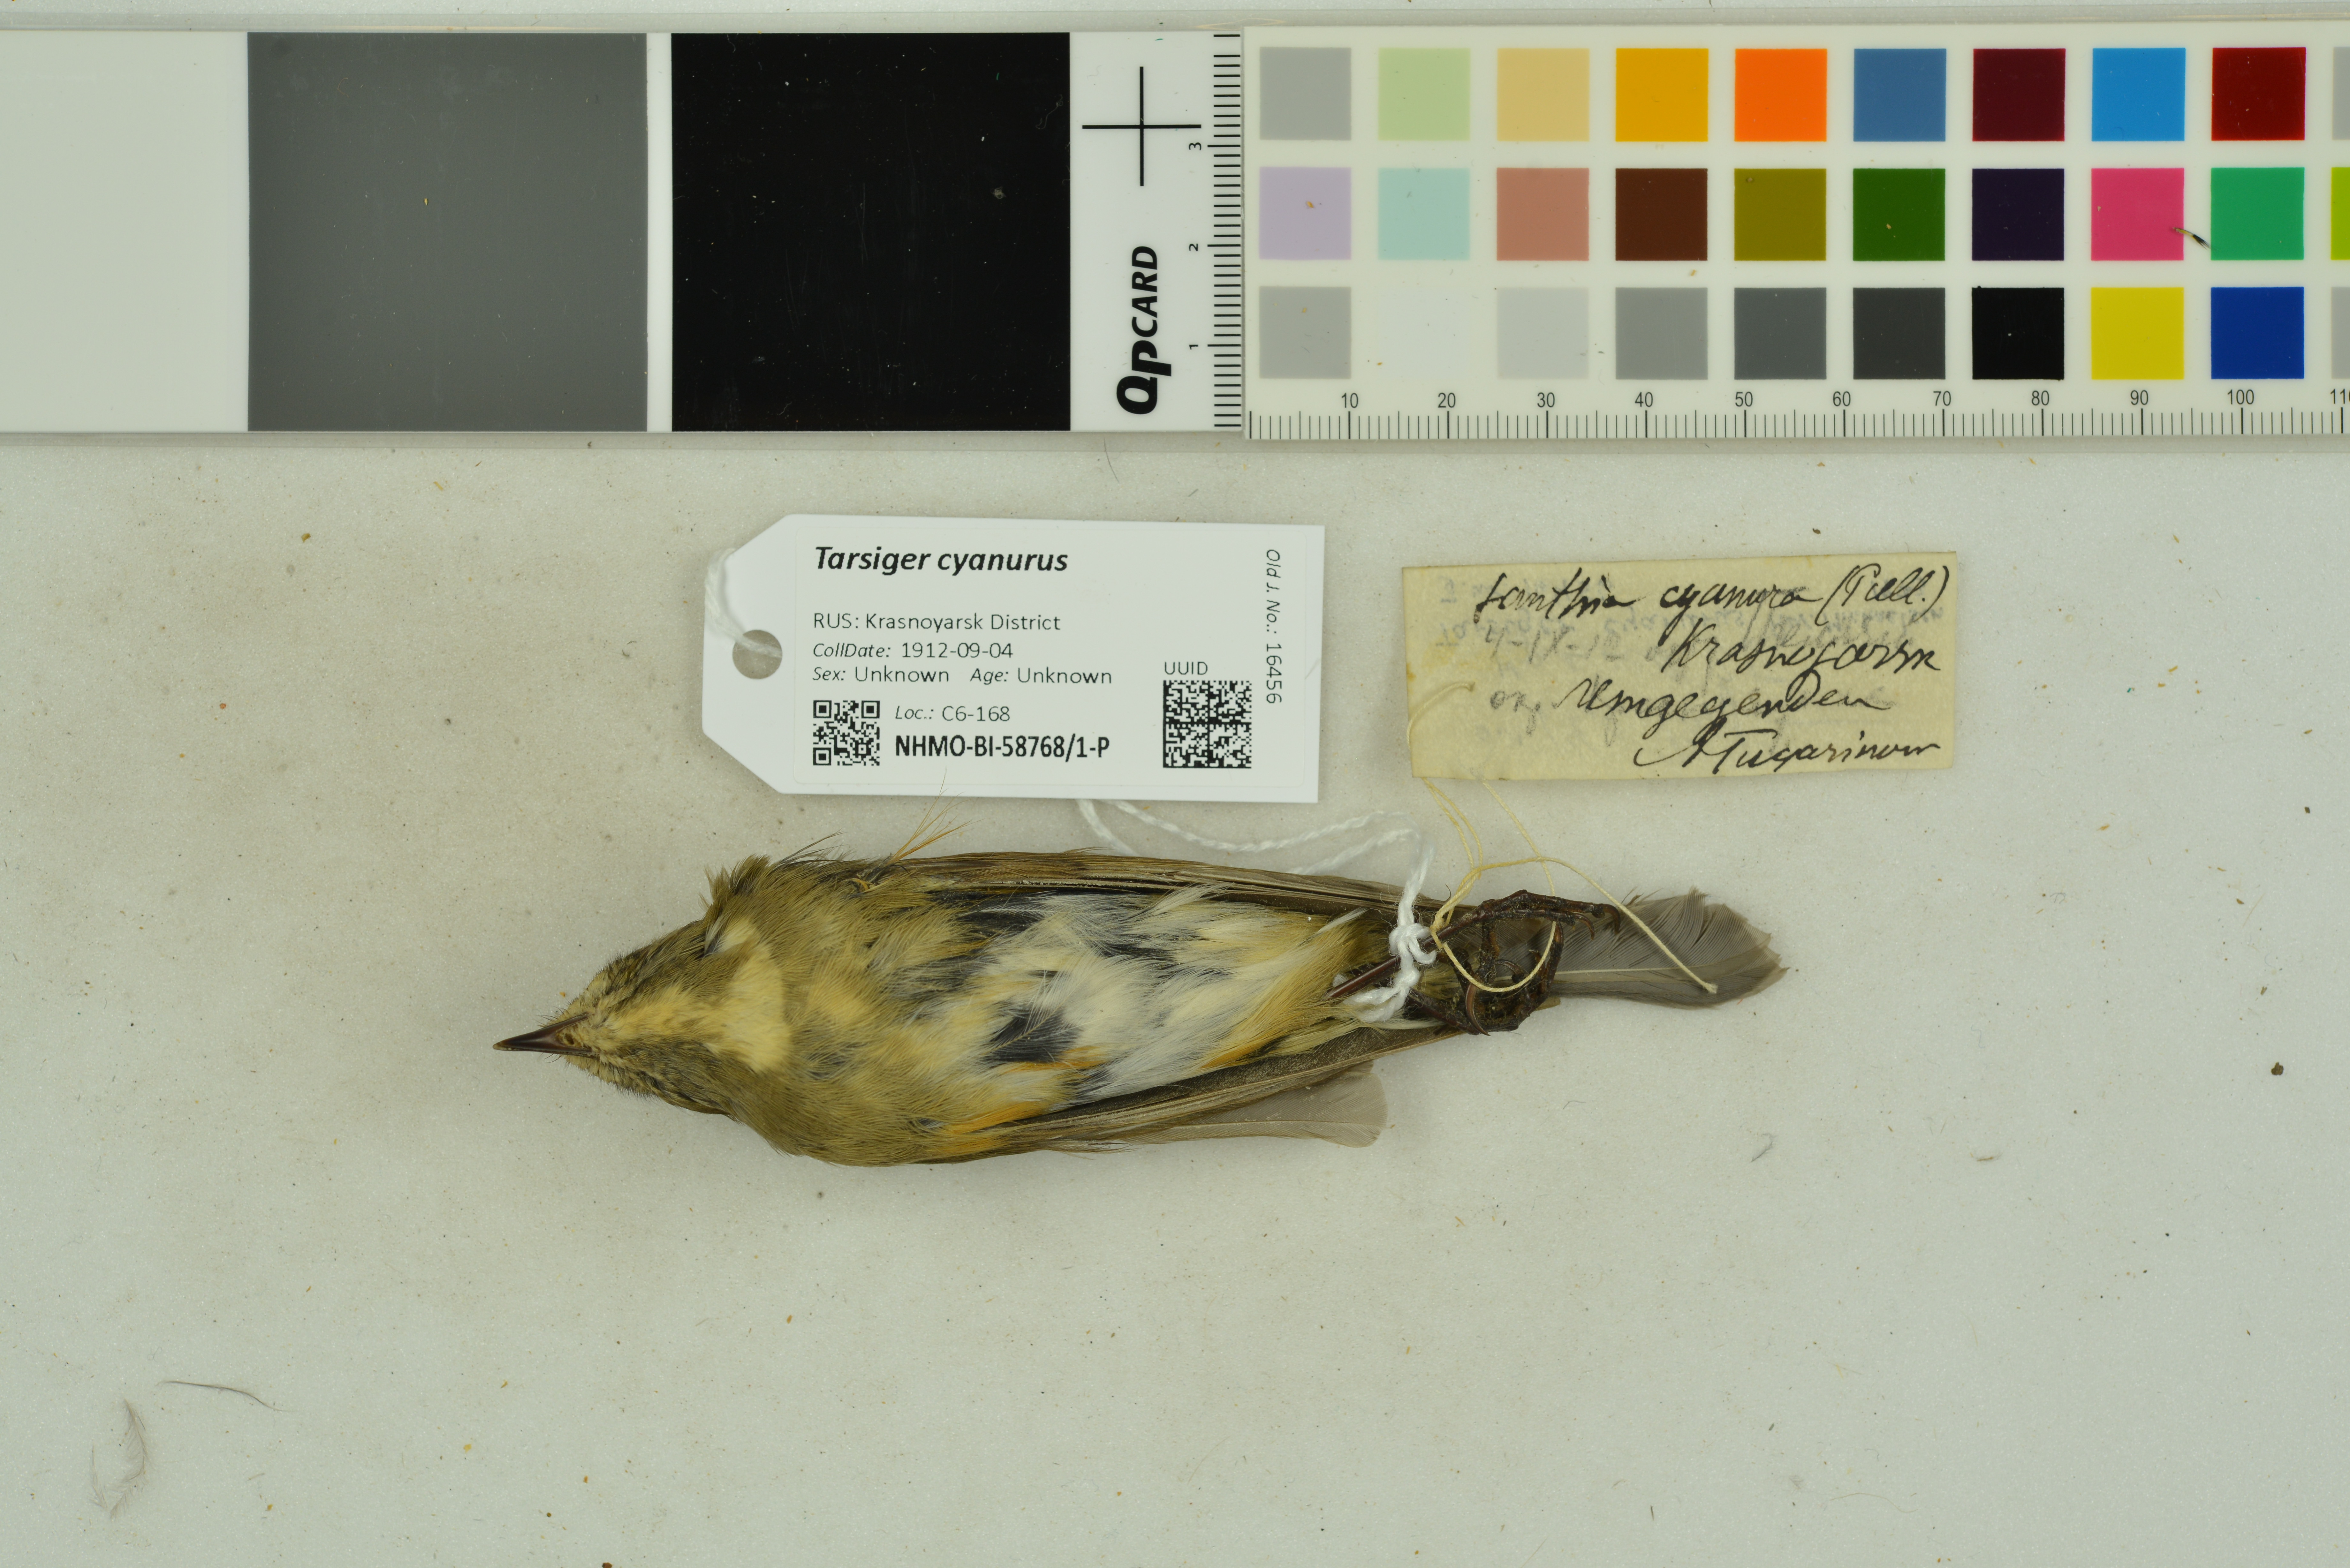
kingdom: Animalia
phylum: Chordata
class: Aves
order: Passeriformes
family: Muscicapidae
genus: Tarsiger
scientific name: Tarsiger cyanurus
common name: Red-flanked bluetail
